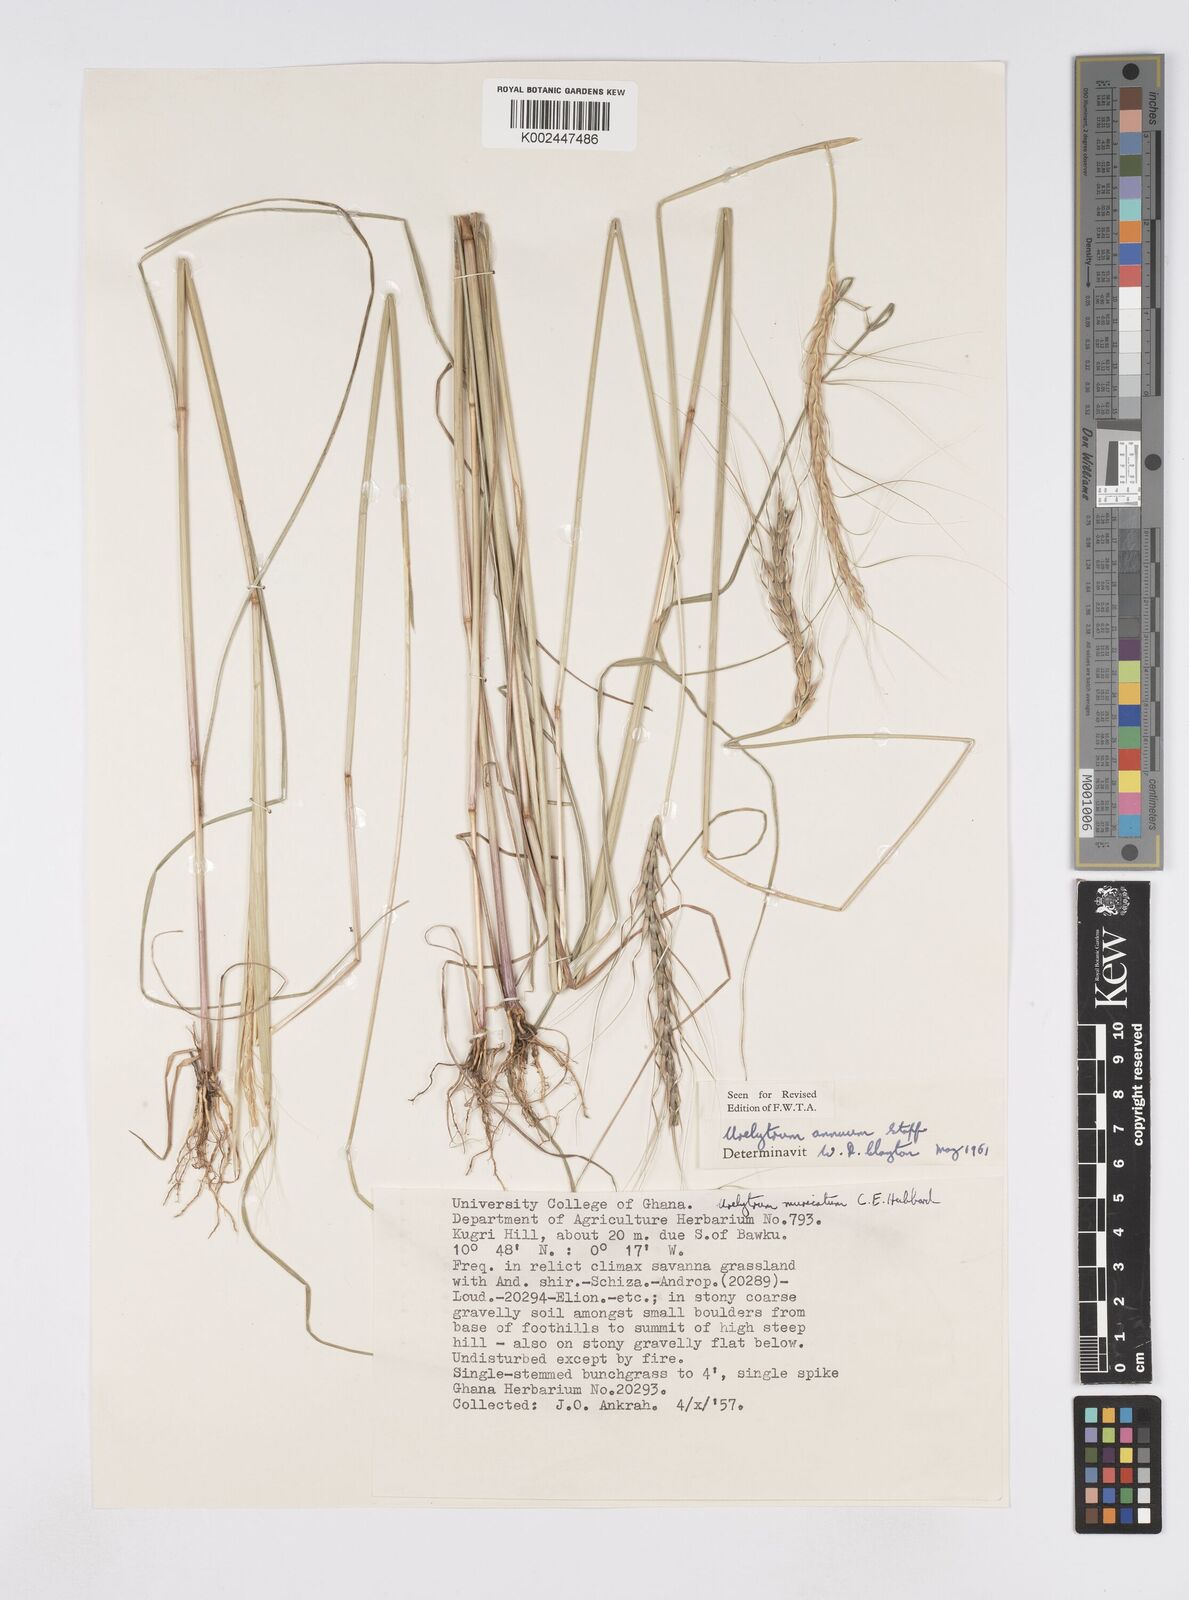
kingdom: Plantae
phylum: Tracheophyta
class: Liliopsida
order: Poales
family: Poaceae
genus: Urelytrum
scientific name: Urelytrum annuum
